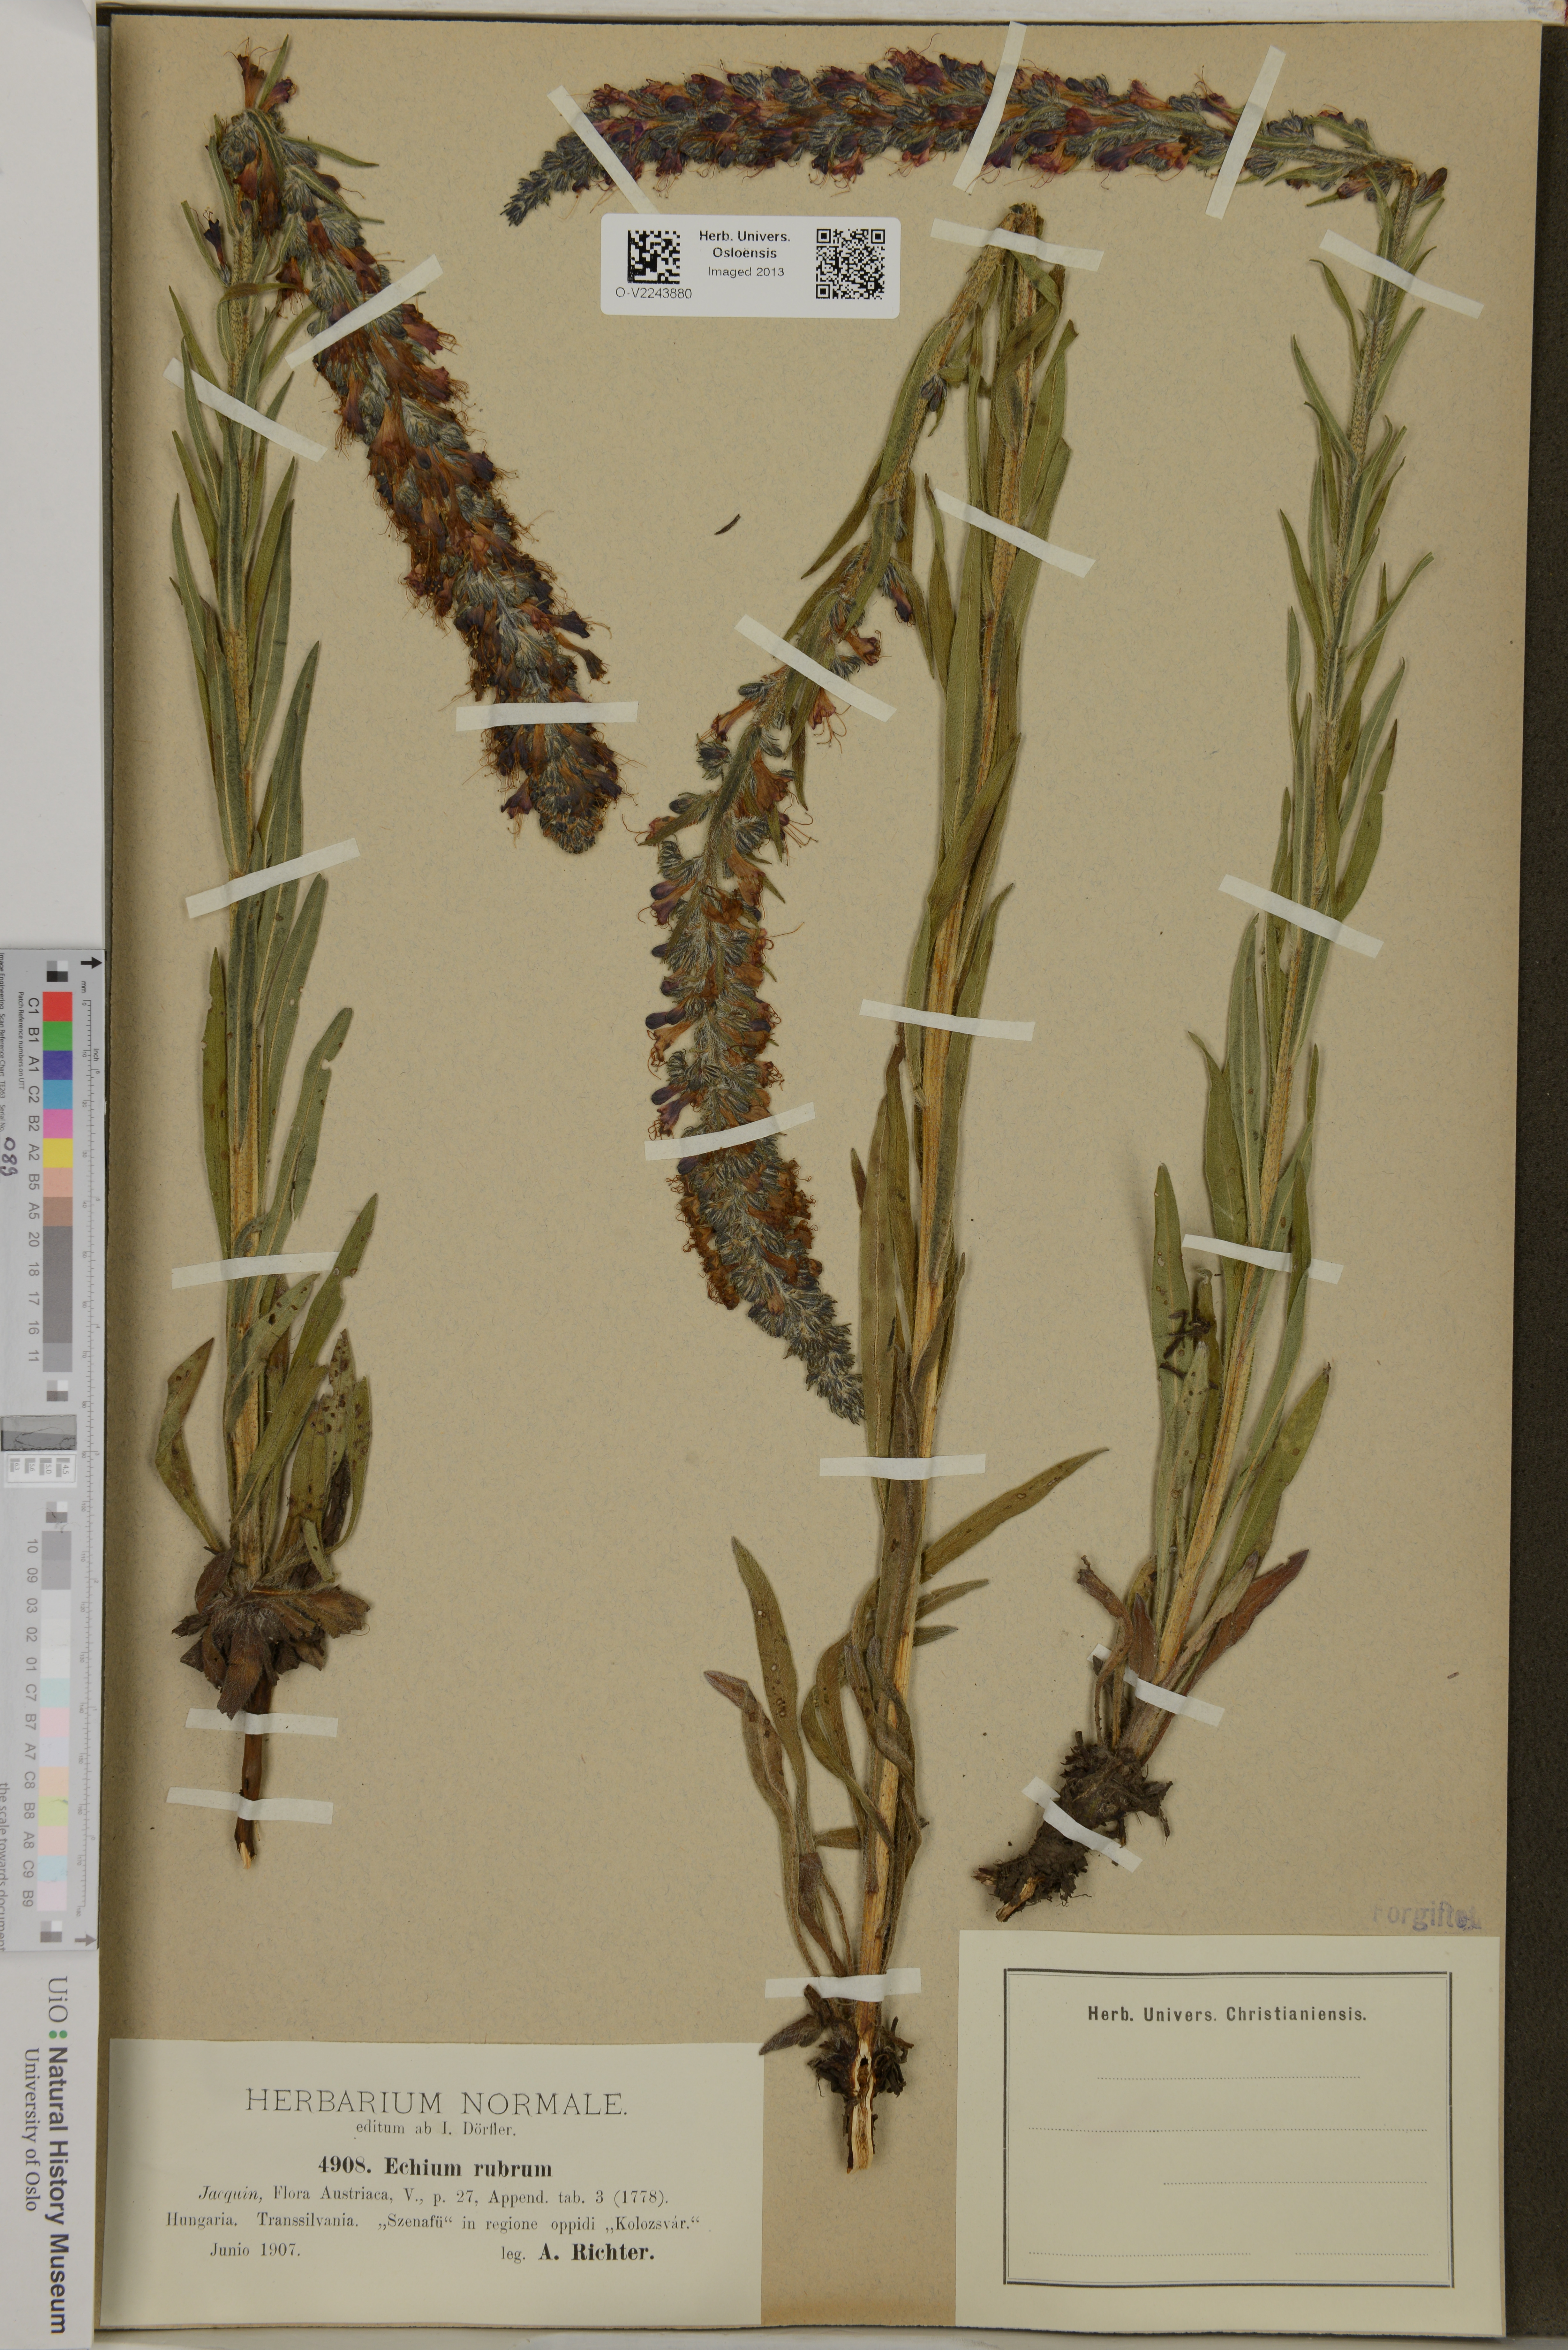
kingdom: Plantae
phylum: Tracheophyta
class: Magnoliopsida
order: Boraginales
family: Boraginaceae
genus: Echium
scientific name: Echium rubrum
